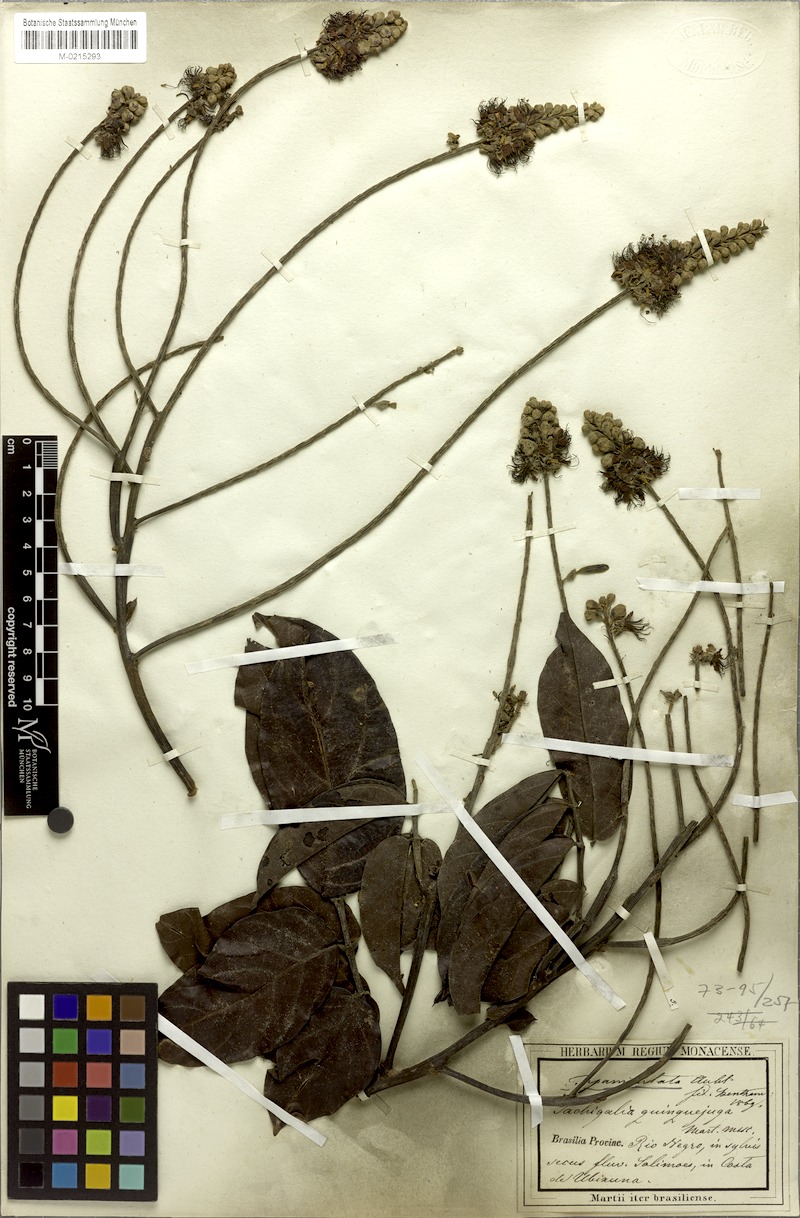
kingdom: Plantae
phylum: Tracheophyta
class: Magnoliopsida
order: Fabales
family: Fabaceae
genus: Tachigali
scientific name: Tachigali paniculata
